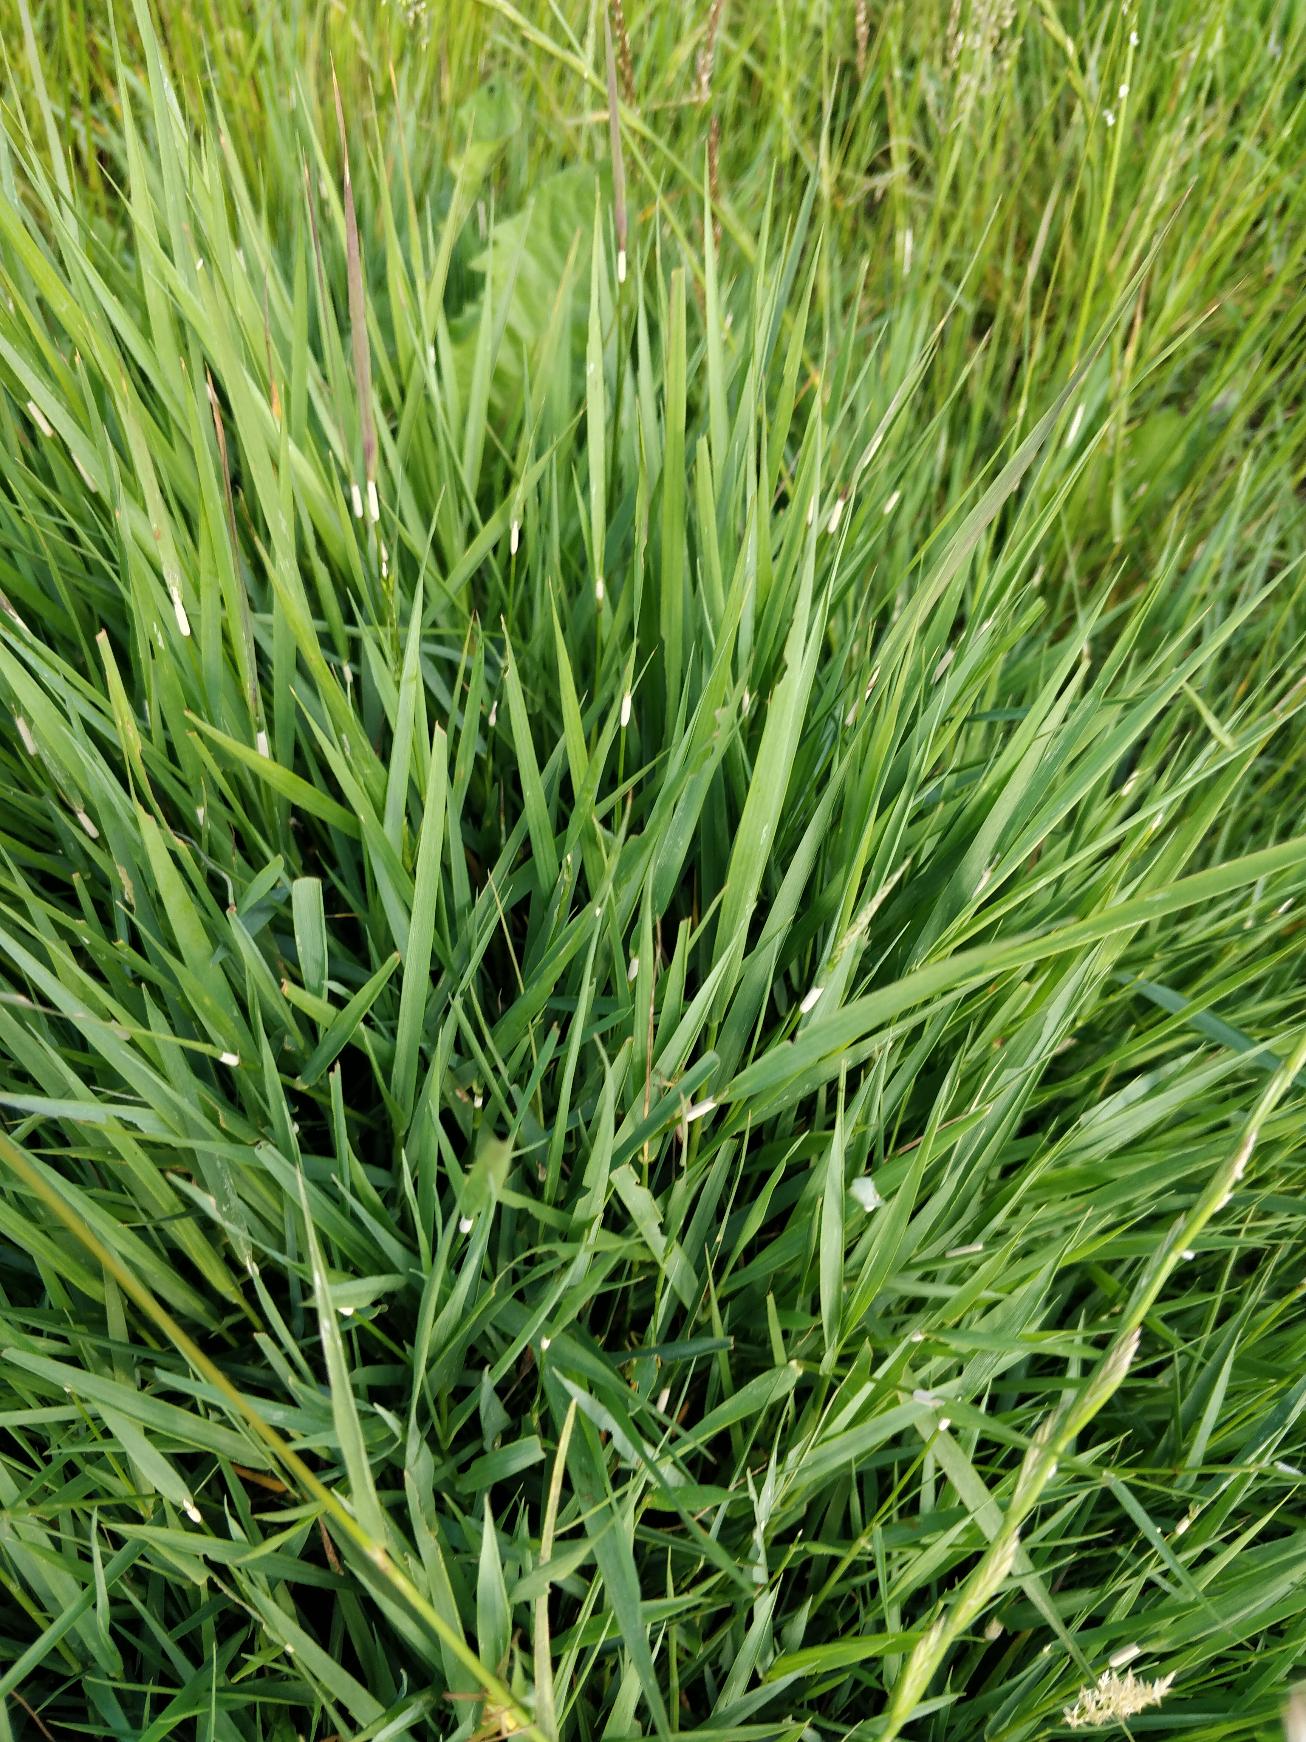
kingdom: Plantae
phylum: Tracheophyta
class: Liliopsida
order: Poales
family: Poaceae
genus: Agrostis
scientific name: Agrostis stolonifera
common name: Kryb-hvene
